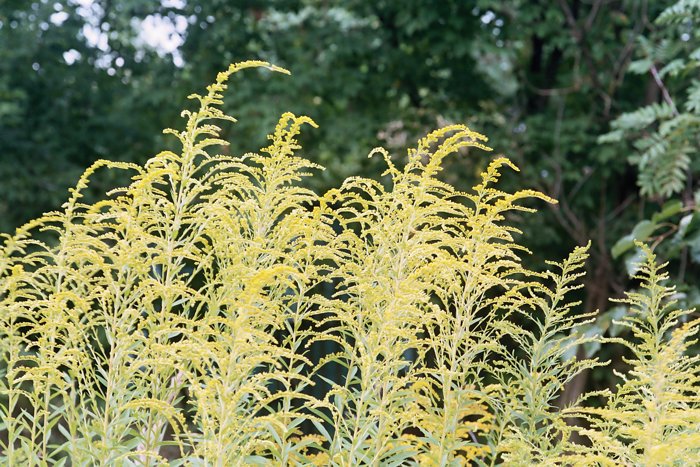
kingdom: Plantae
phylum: Tracheophyta
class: Magnoliopsida
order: Asterales
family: Asteraceae
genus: Solidago
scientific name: Solidago canadensis
